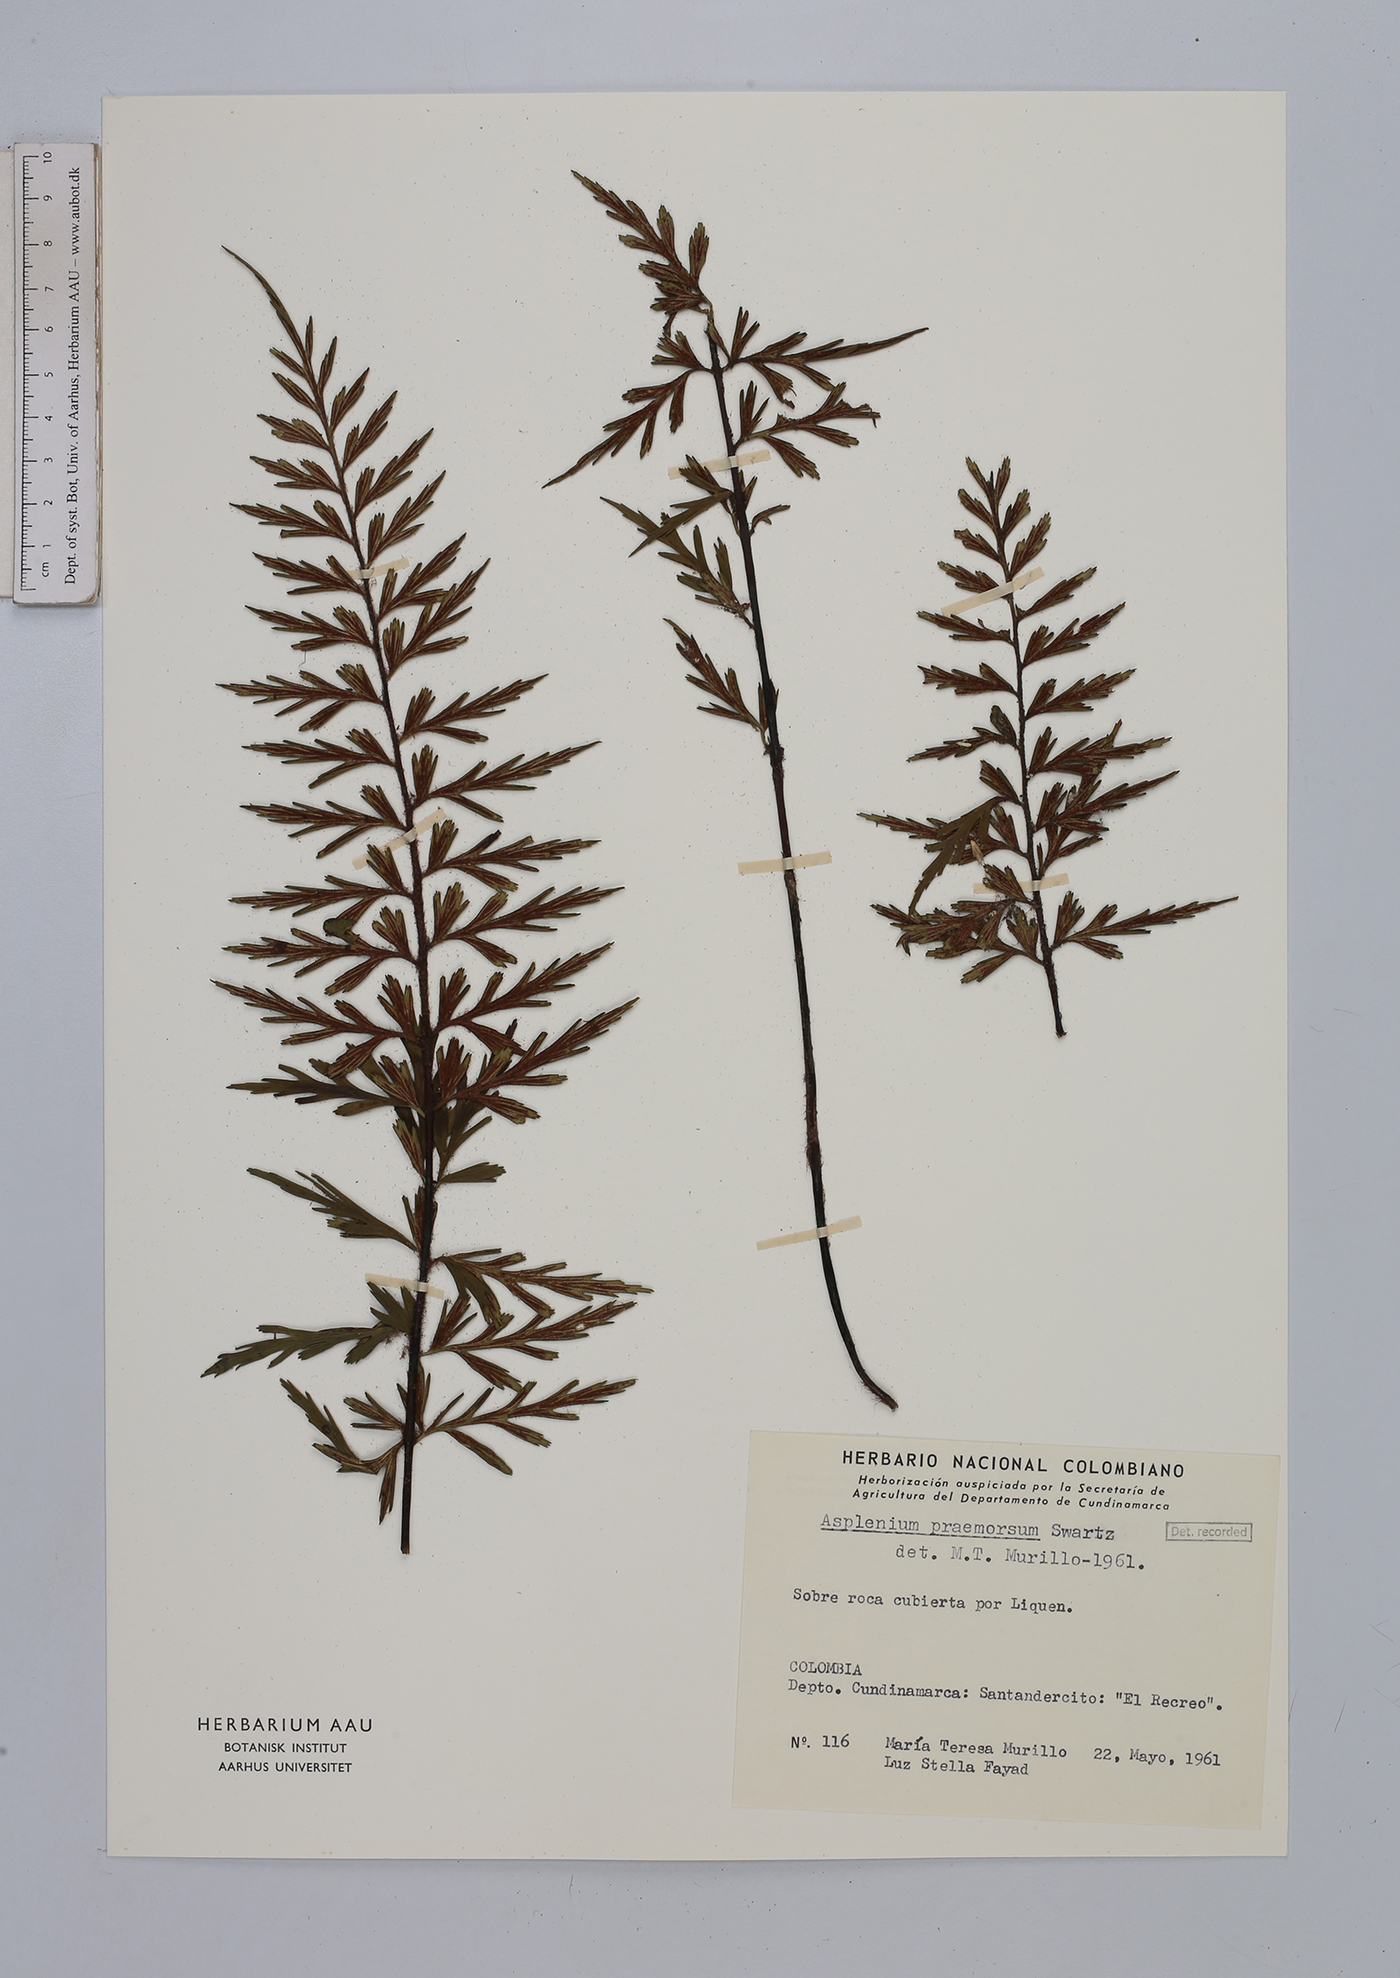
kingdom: Plantae
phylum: Tracheophyta
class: Polypodiopsida
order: Polypodiales
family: Aspleniaceae
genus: Asplenium
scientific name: Asplenium praemorsum
